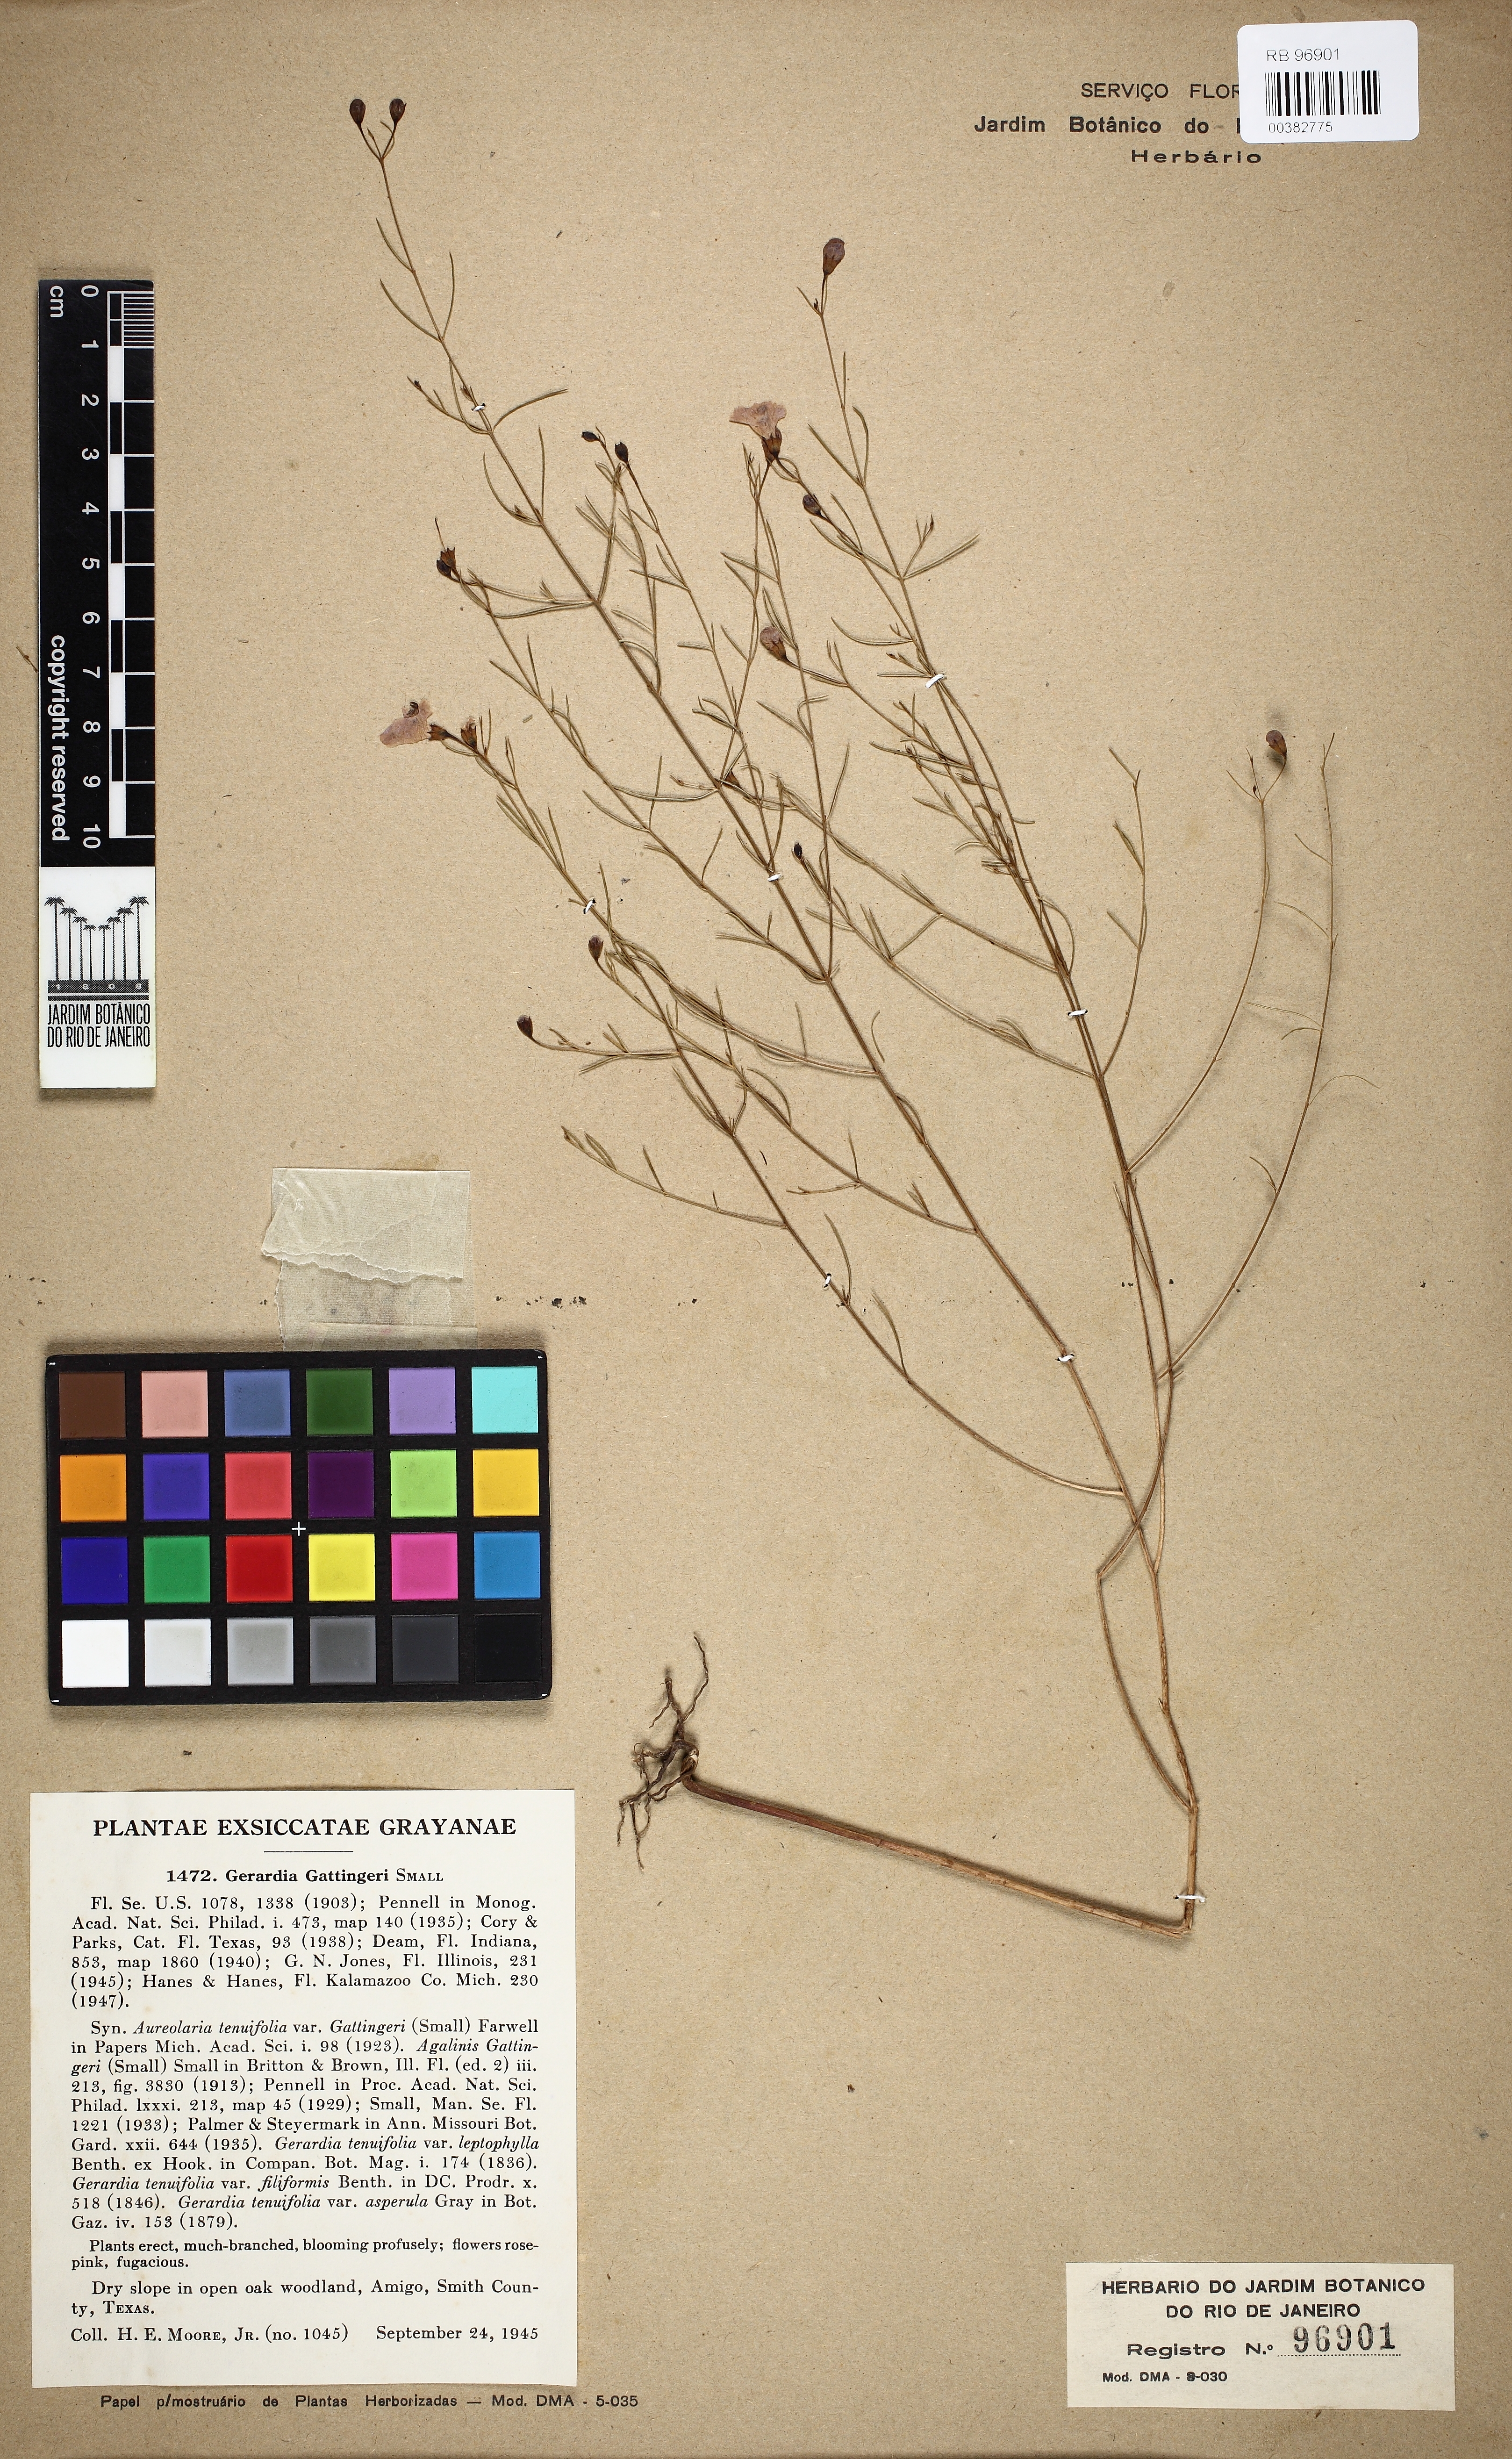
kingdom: Plantae
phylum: Tracheophyta
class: Magnoliopsida
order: Lamiales
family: Orobanchaceae
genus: Agalinis
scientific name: Agalinis gattingeri
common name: Gattinger's agalinis
